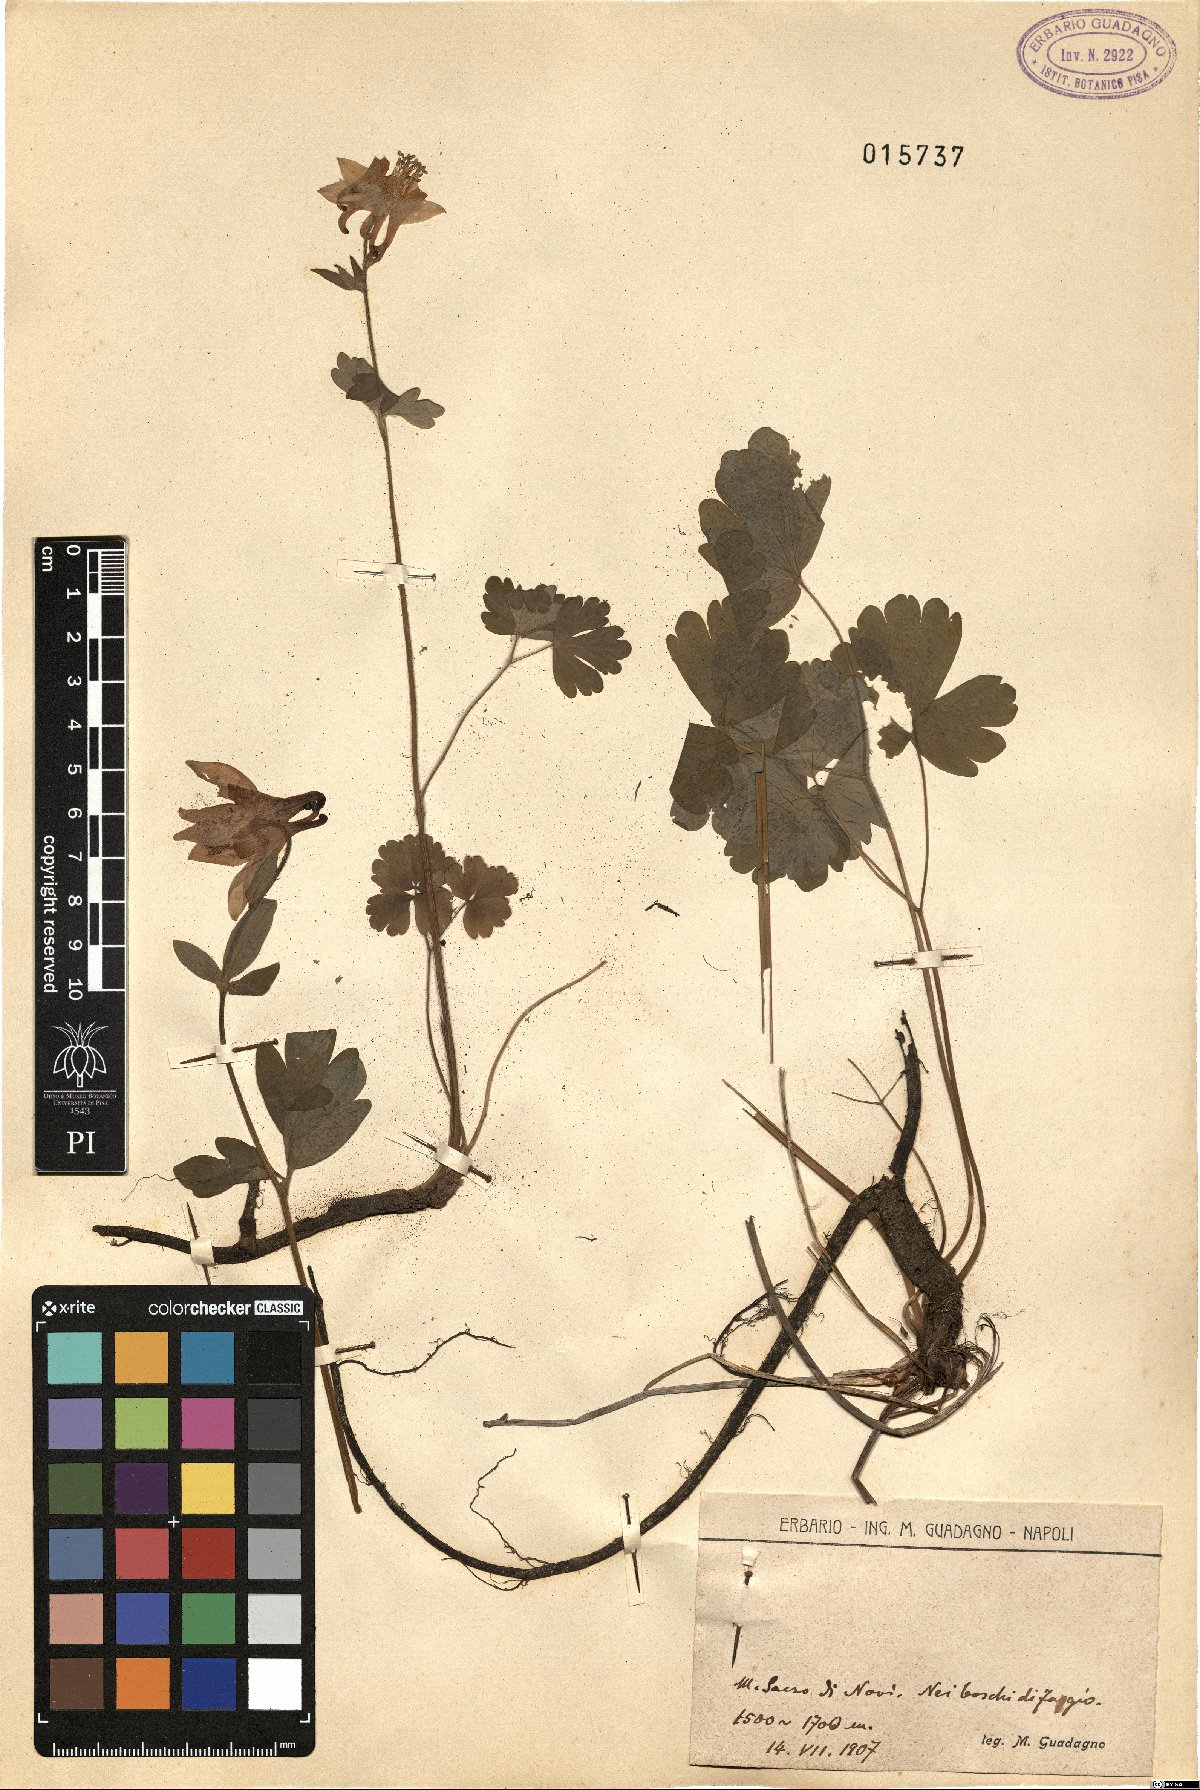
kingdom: Plantae
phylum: Tracheophyta
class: Magnoliopsida
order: Ranunculales
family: Ranunculaceae
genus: Aquilegia
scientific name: Aquilegia dumeticola
